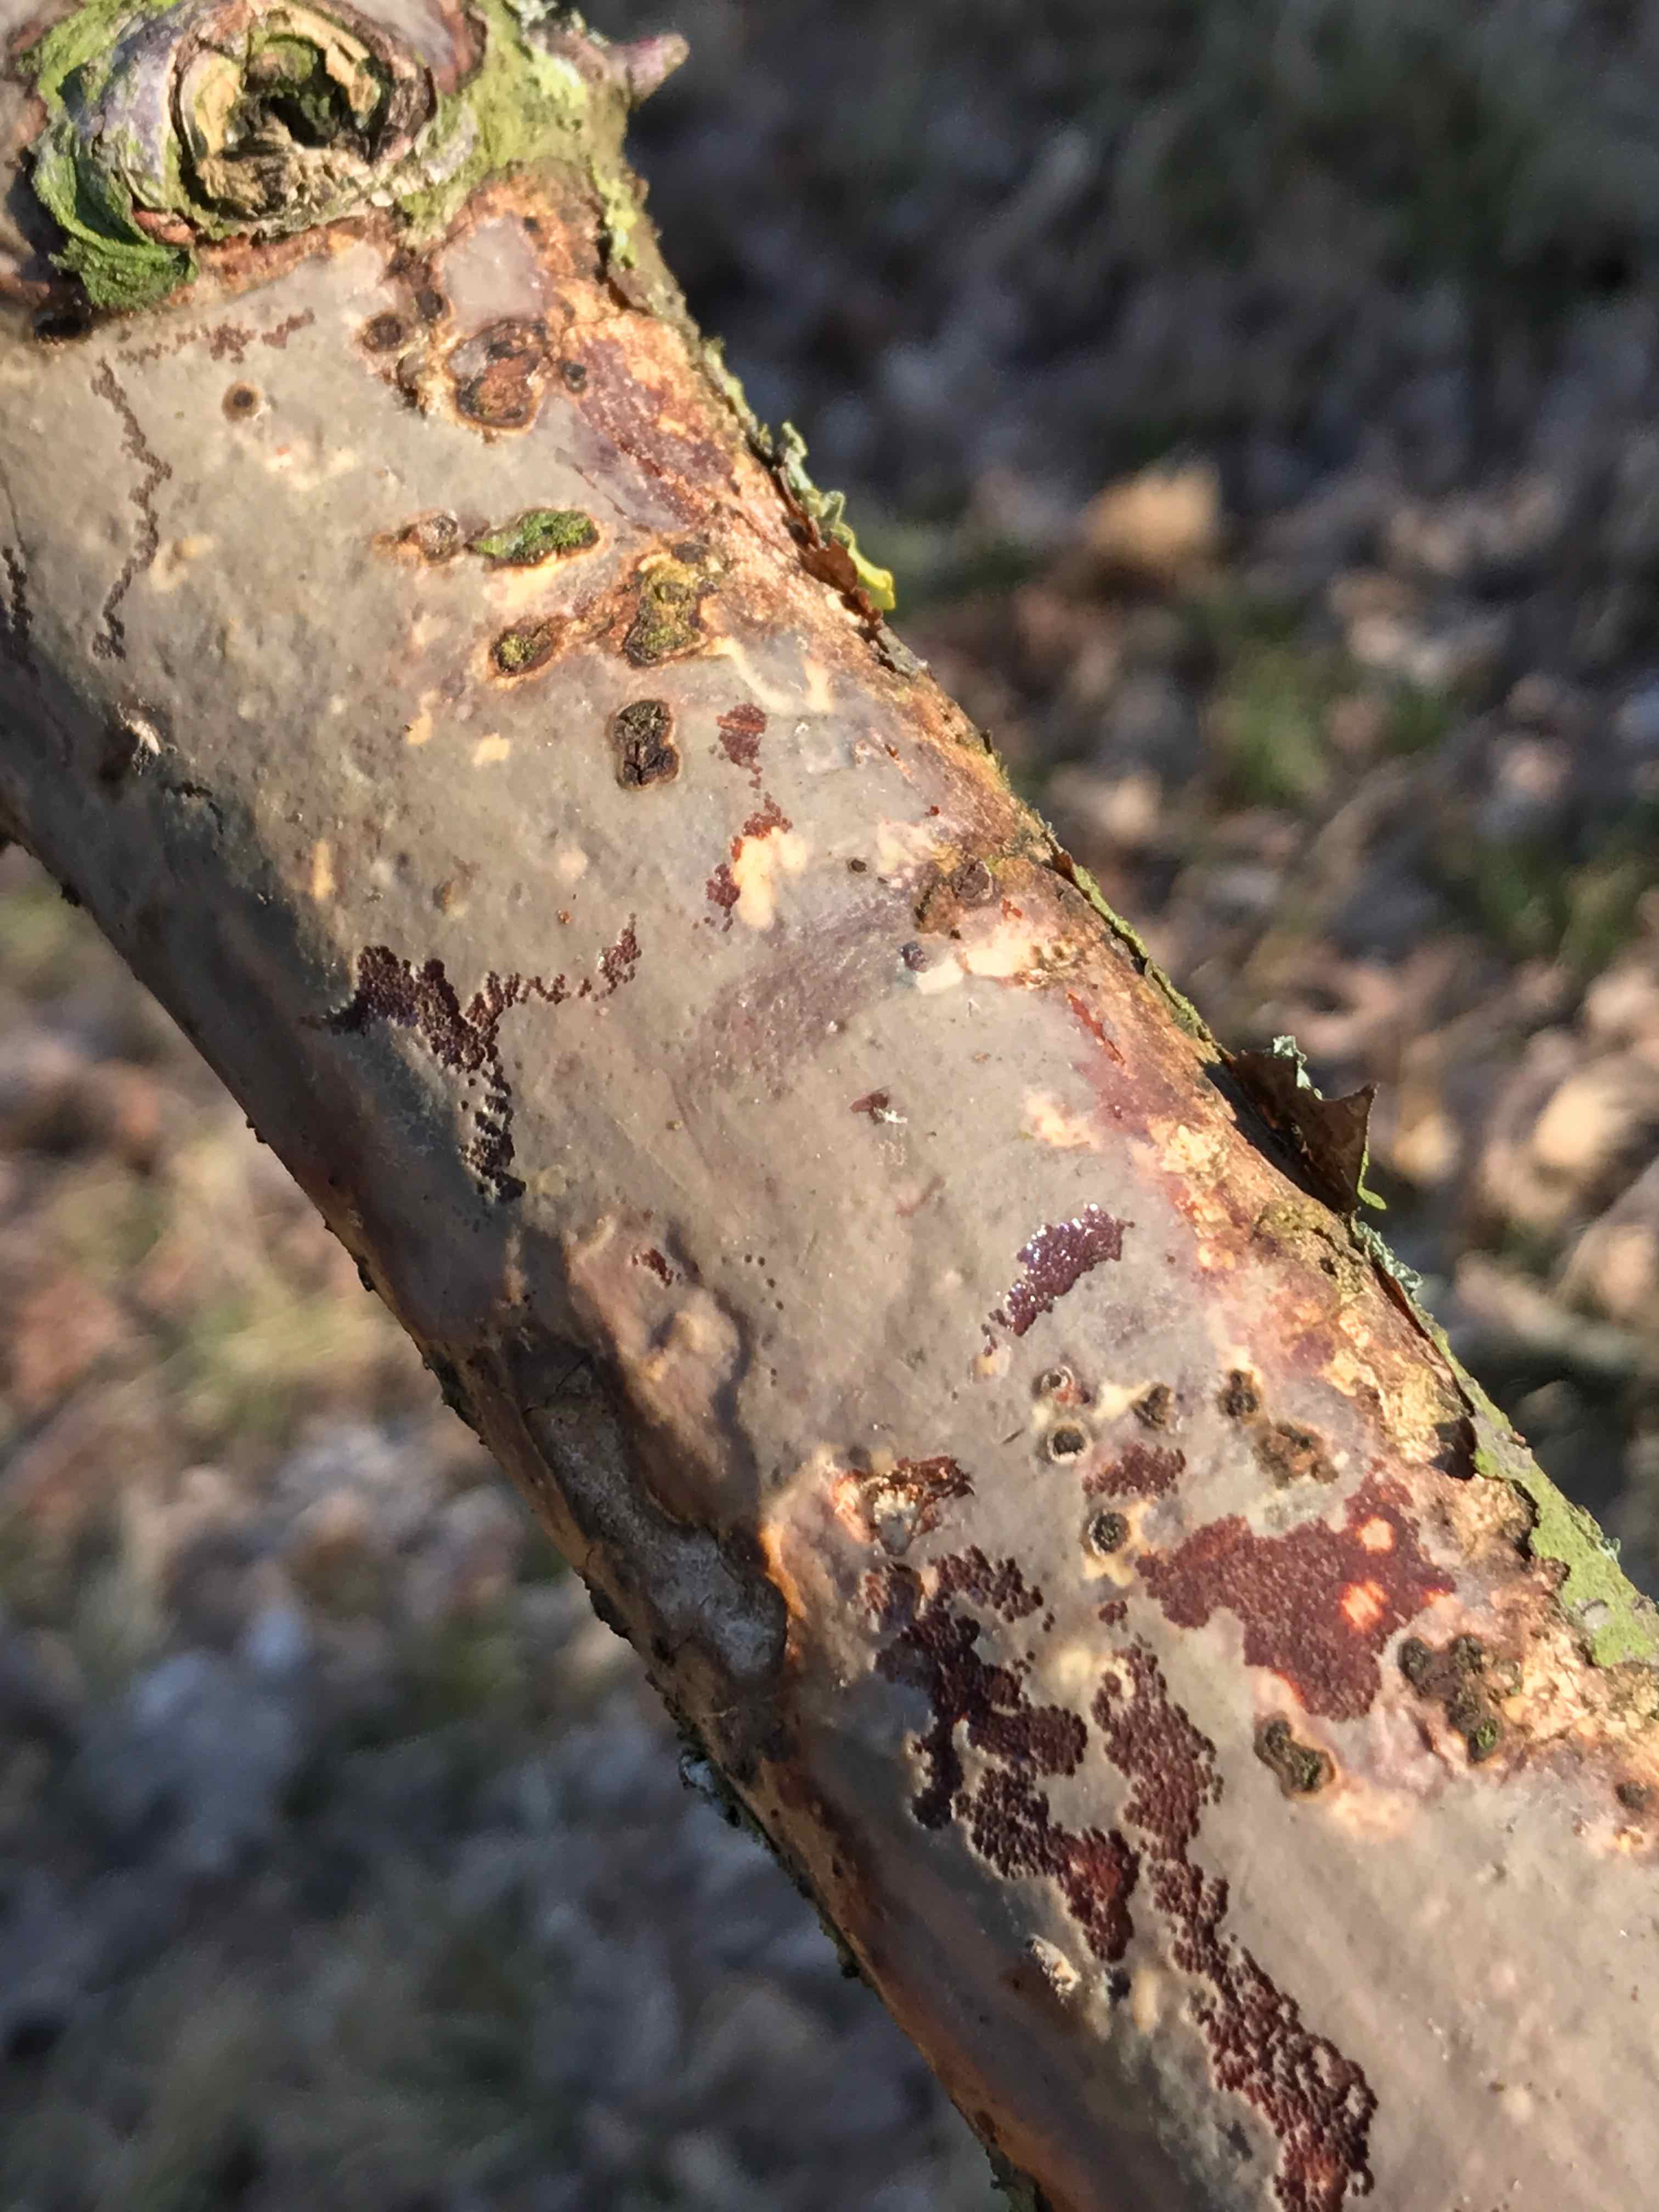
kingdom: Fungi
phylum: Basidiomycota
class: Agaricomycetes
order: Corticiales
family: Vuilleminiaceae
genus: Vuilleminia
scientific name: Vuilleminia comedens
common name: almindelig barksprænger
